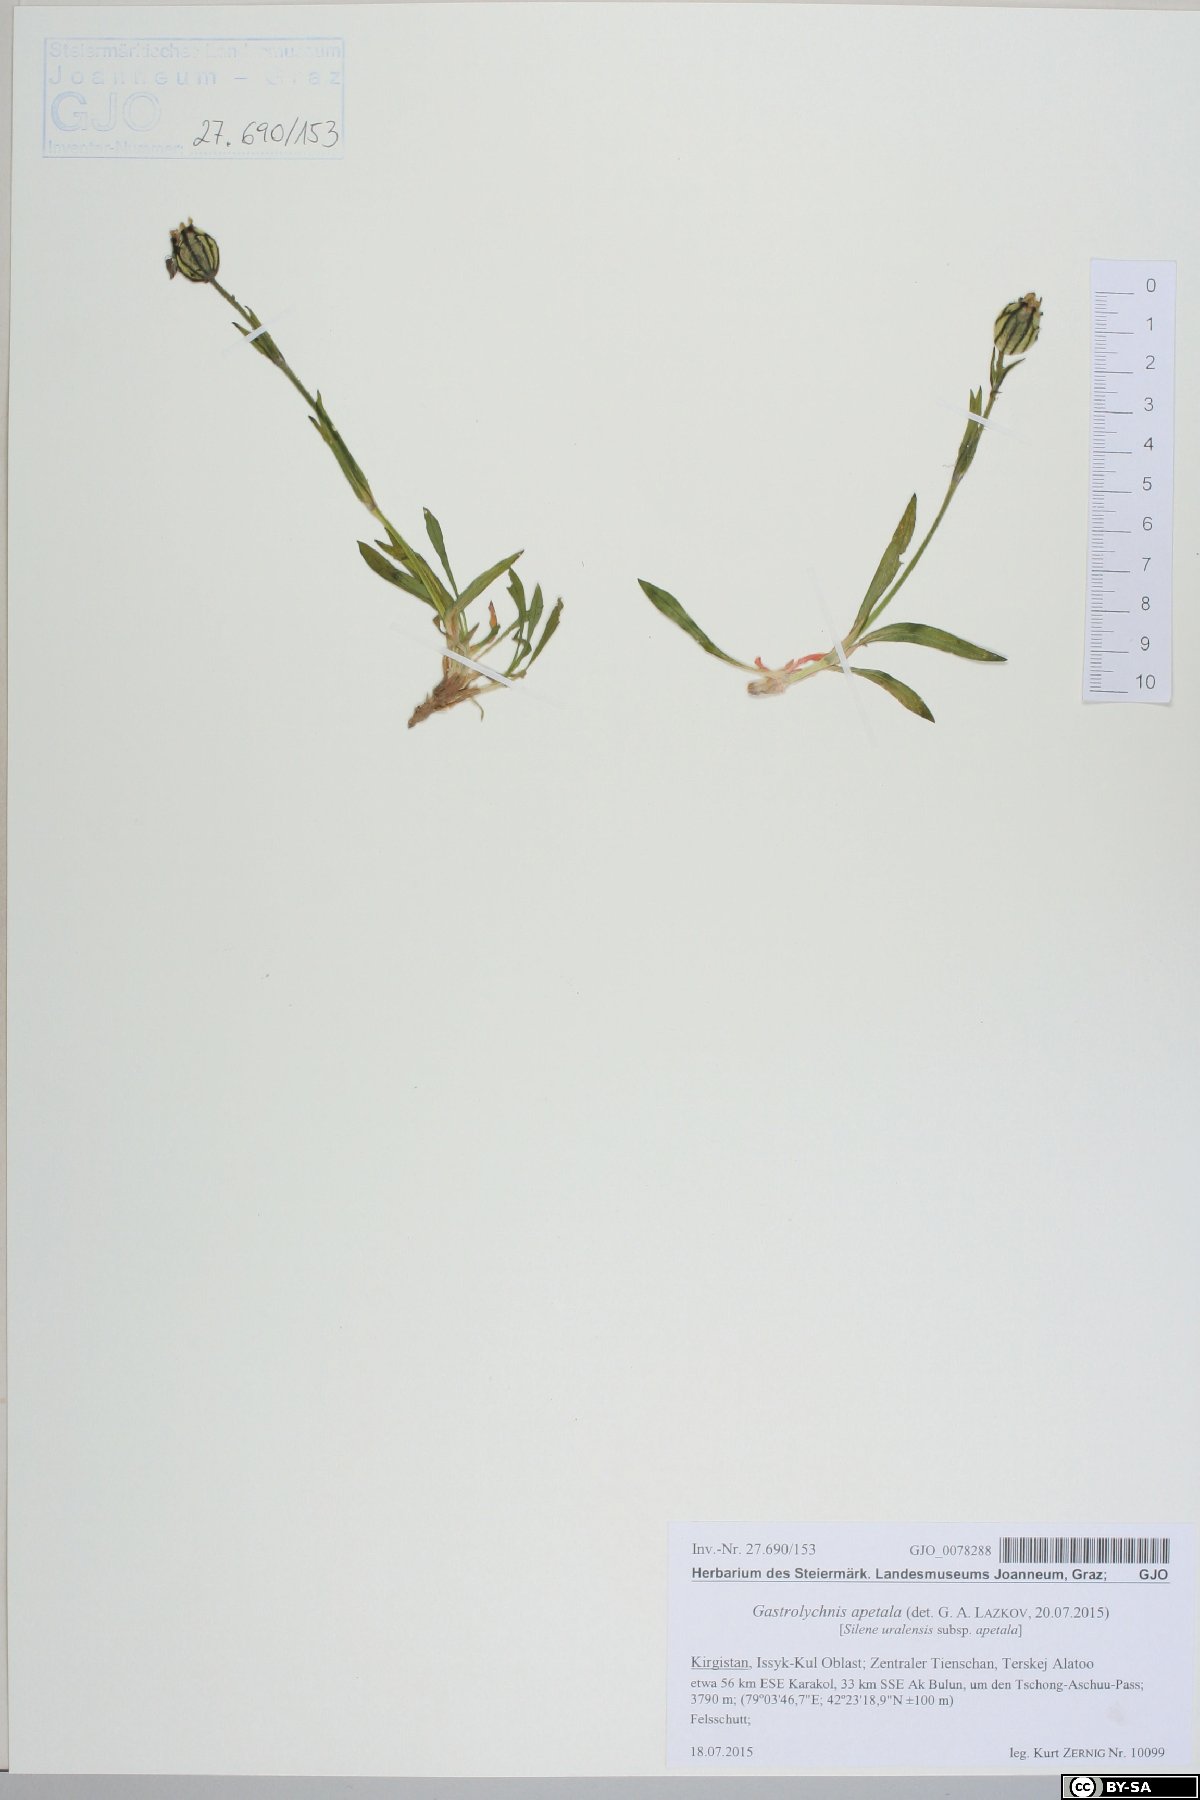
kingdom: Plantae
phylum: Tracheophyta
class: Magnoliopsida
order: Caryophyllales
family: Caryophyllaceae
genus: Silene
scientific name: Silene wahlbergella
